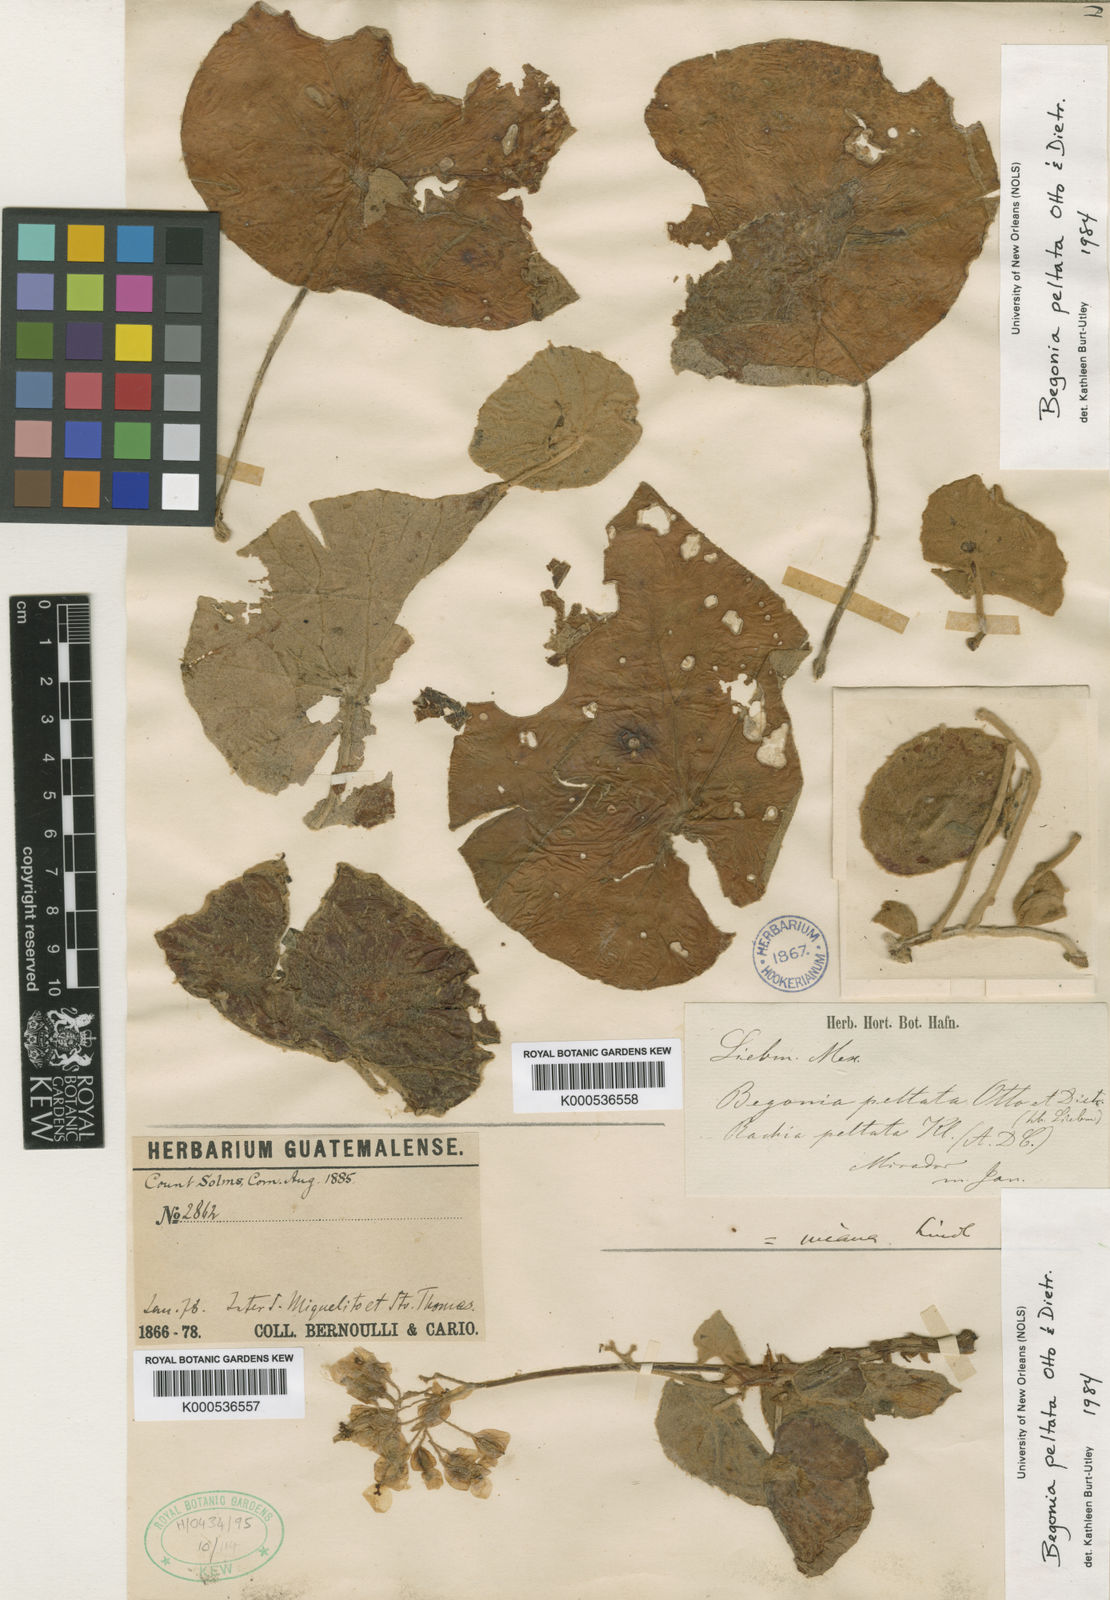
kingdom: Plantae
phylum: Tracheophyta
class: Magnoliopsida
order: Cucurbitales
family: Begoniaceae
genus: Begonia
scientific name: Begonia peltata
